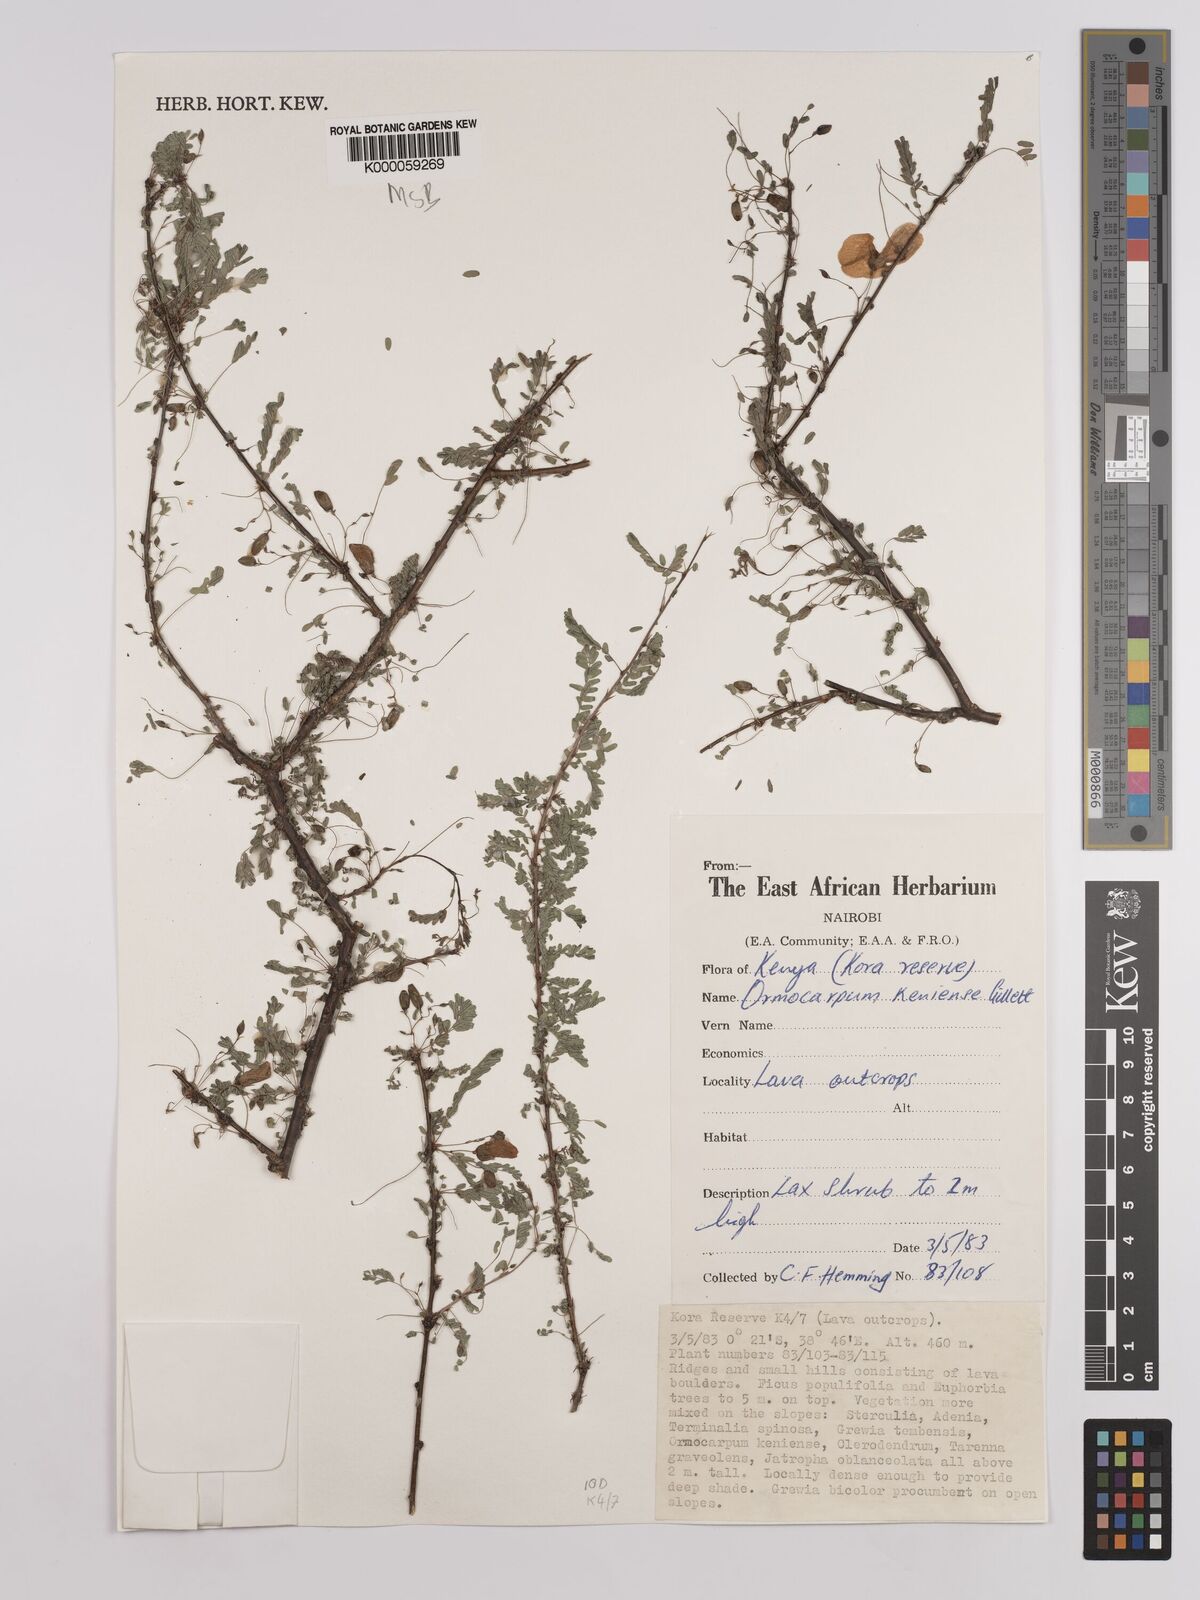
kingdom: Plantae
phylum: Tracheophyta
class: Magnoliopsida
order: Fabales
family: Fabaceae
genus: Ormocarpum
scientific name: Ormocarpum keniense
